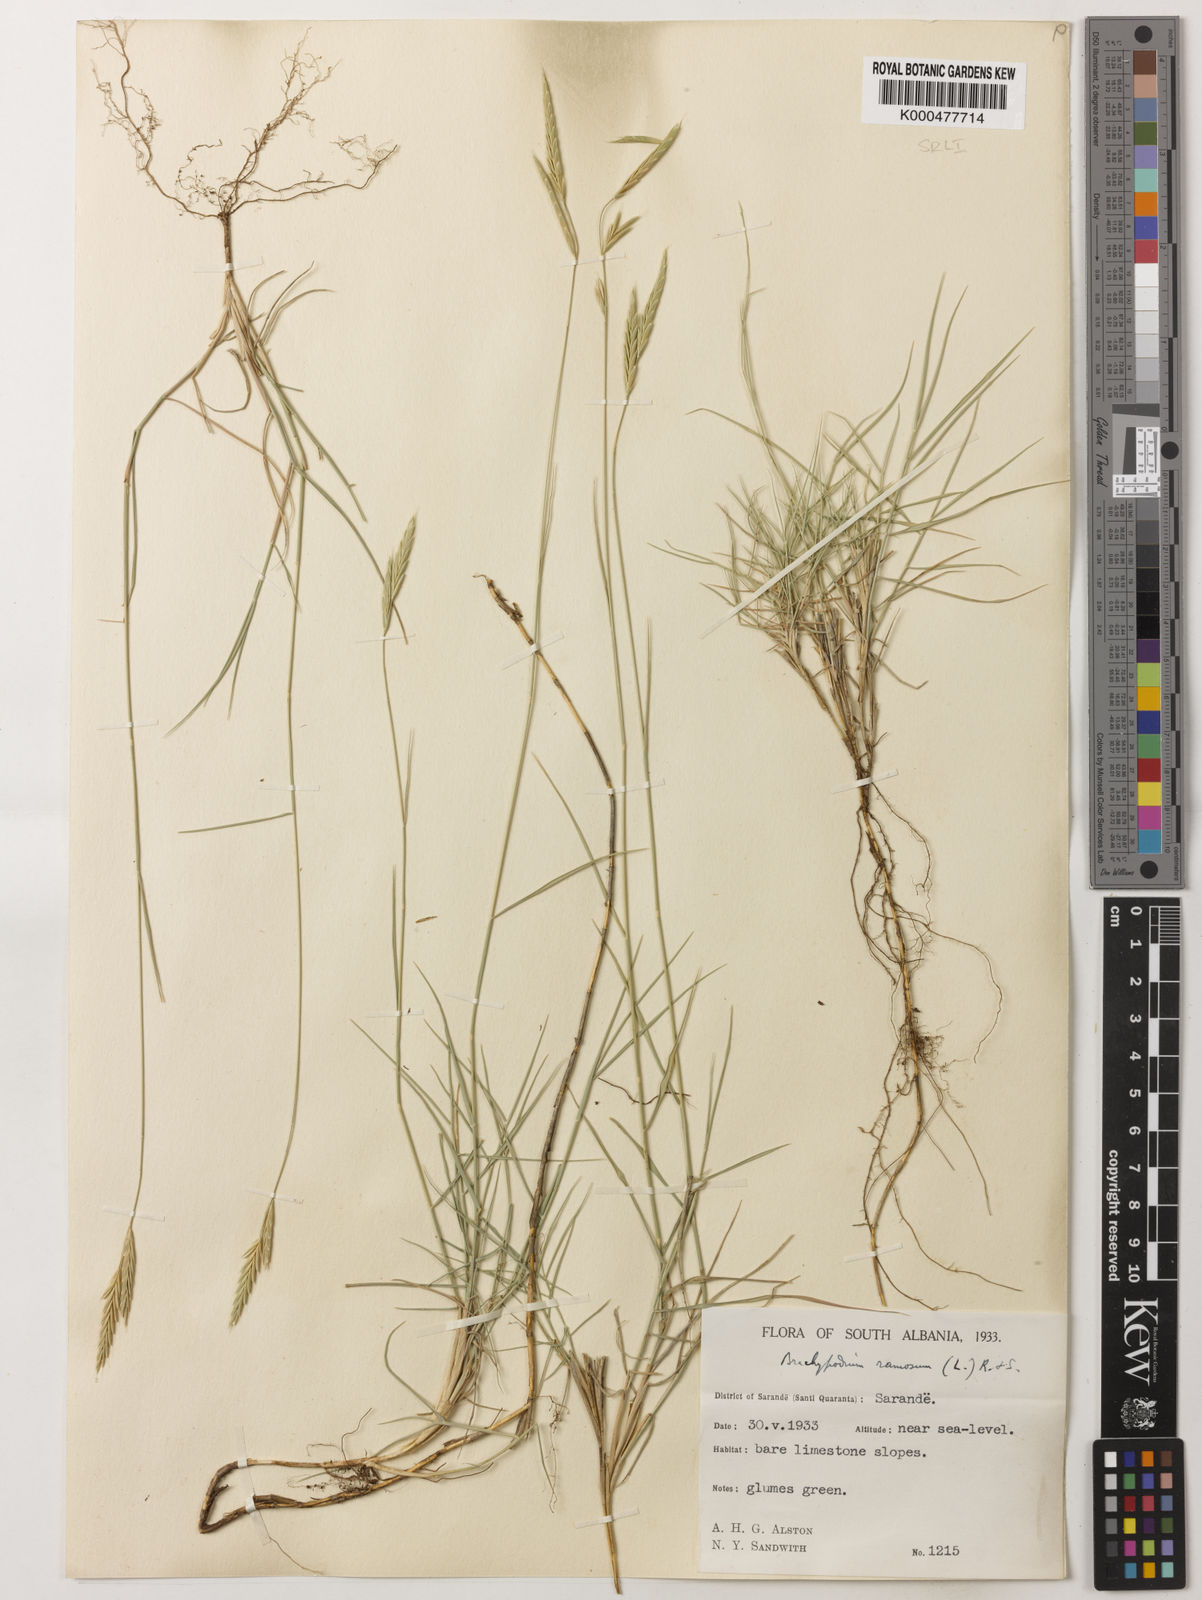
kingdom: Plantae
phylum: Tracheophyta
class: Liliopsida
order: Poales
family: Poaceae
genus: Brachypodium
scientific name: Brachypodium retusum
